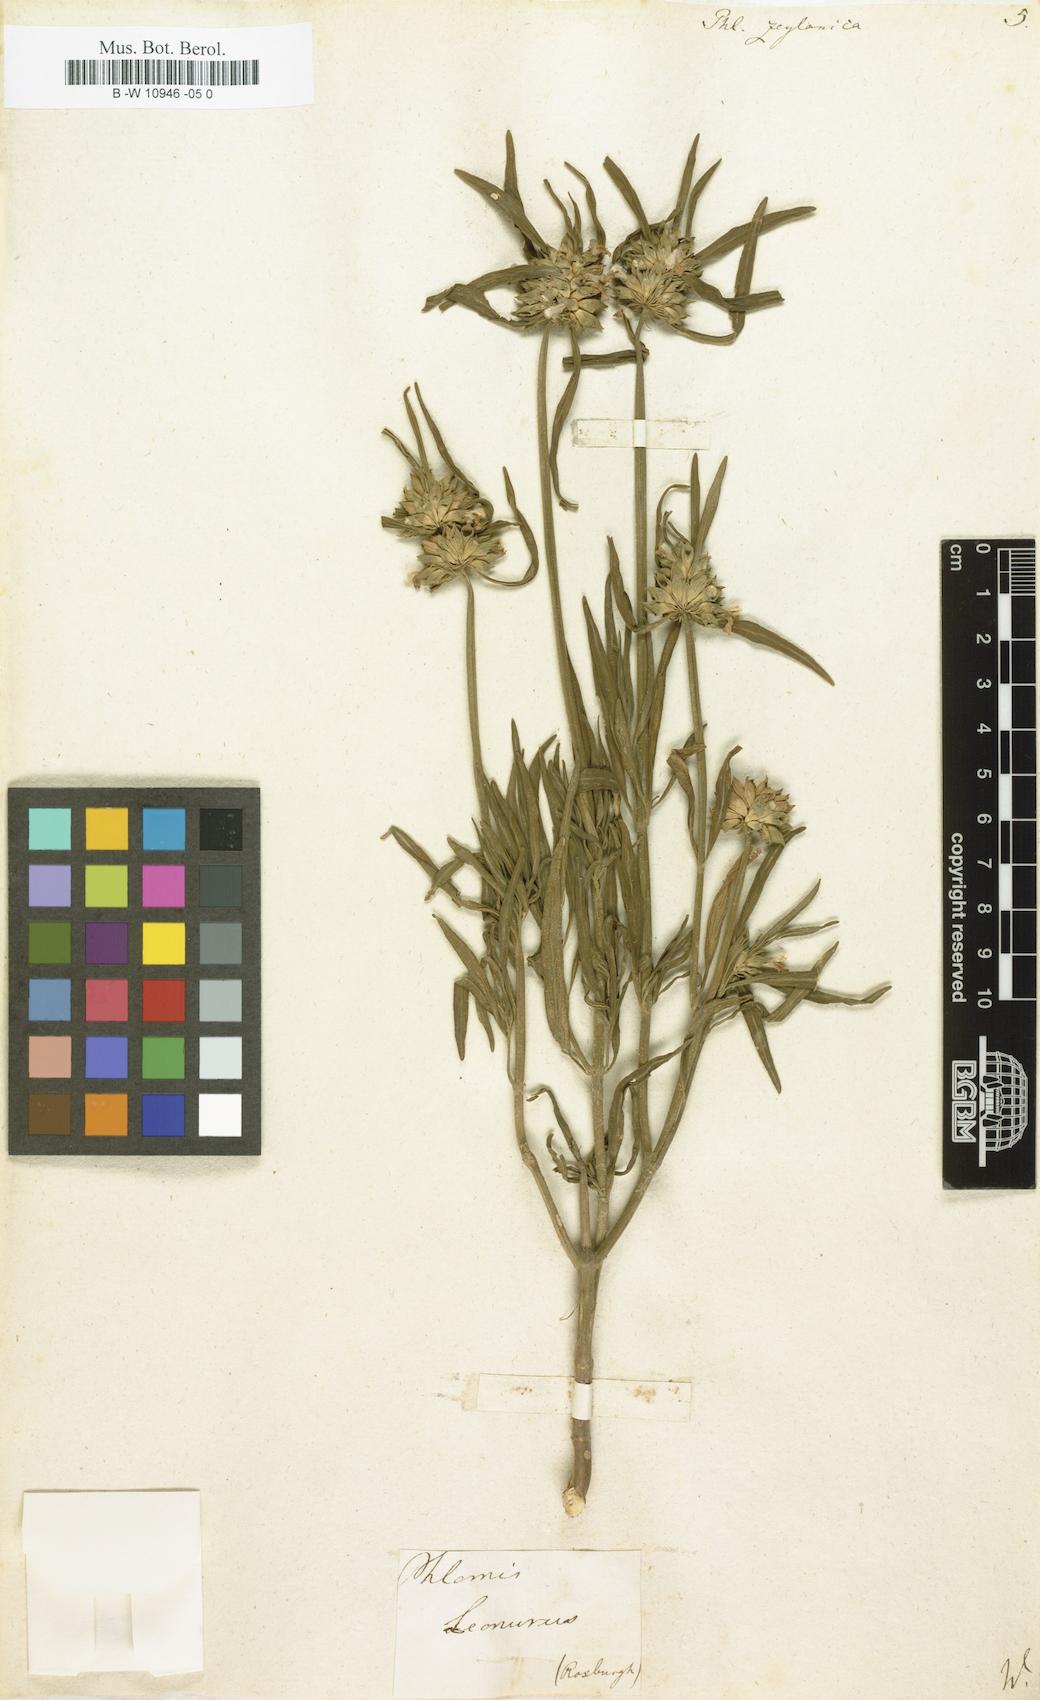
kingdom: Plantae
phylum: Tracheophyta
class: Magnoliopsida
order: Lamiales
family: Lamiaceae
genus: Phlomis
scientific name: Phlomis zeylanica
